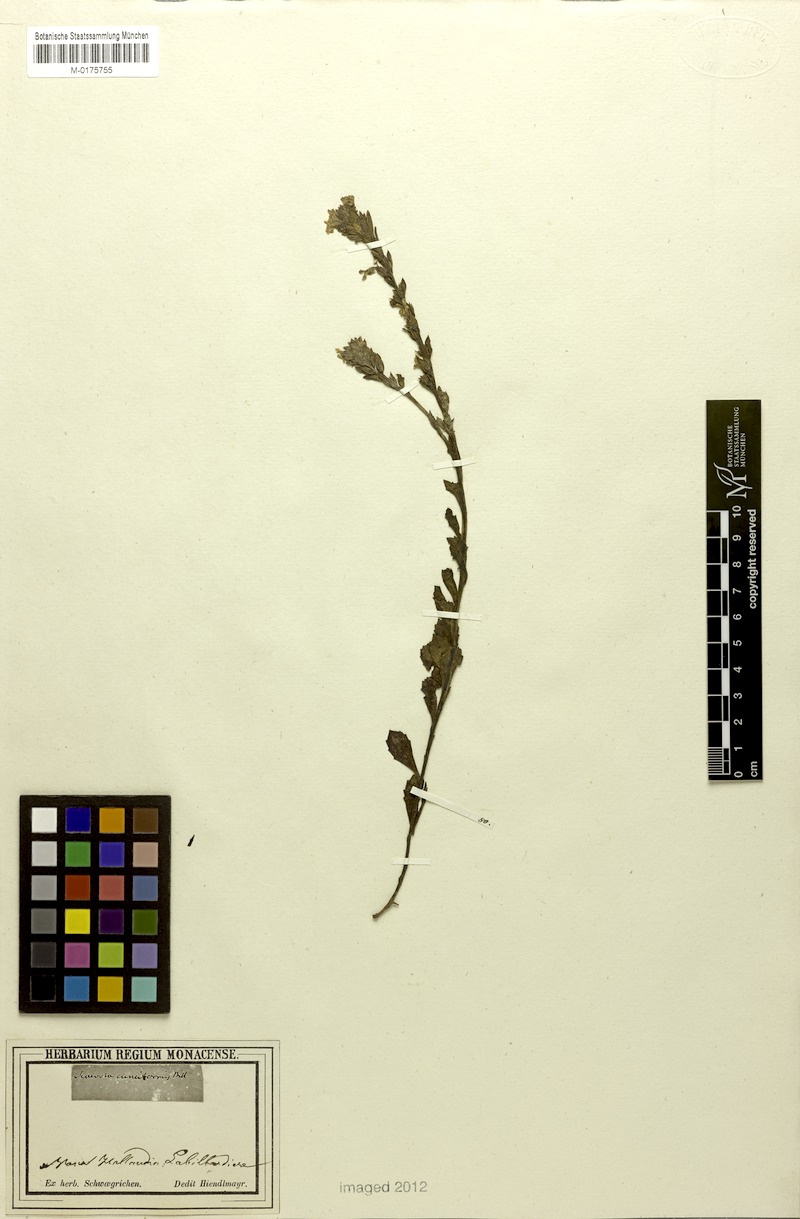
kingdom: Plantae
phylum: Tracheophyta
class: Magnoliopsida
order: Asterales
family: Goodeniaceae
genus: Scaevola
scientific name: Scaevola cuneiformis
